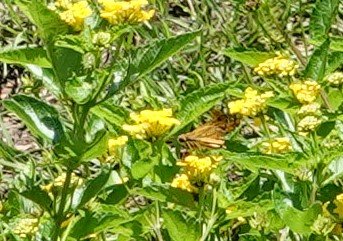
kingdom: Animalia
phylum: Arthropoda
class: Insecta
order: Lepidoptera
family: Hesperiidae
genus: Hylephila
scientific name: Hylephila phyleus
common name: Fiery Skipper
